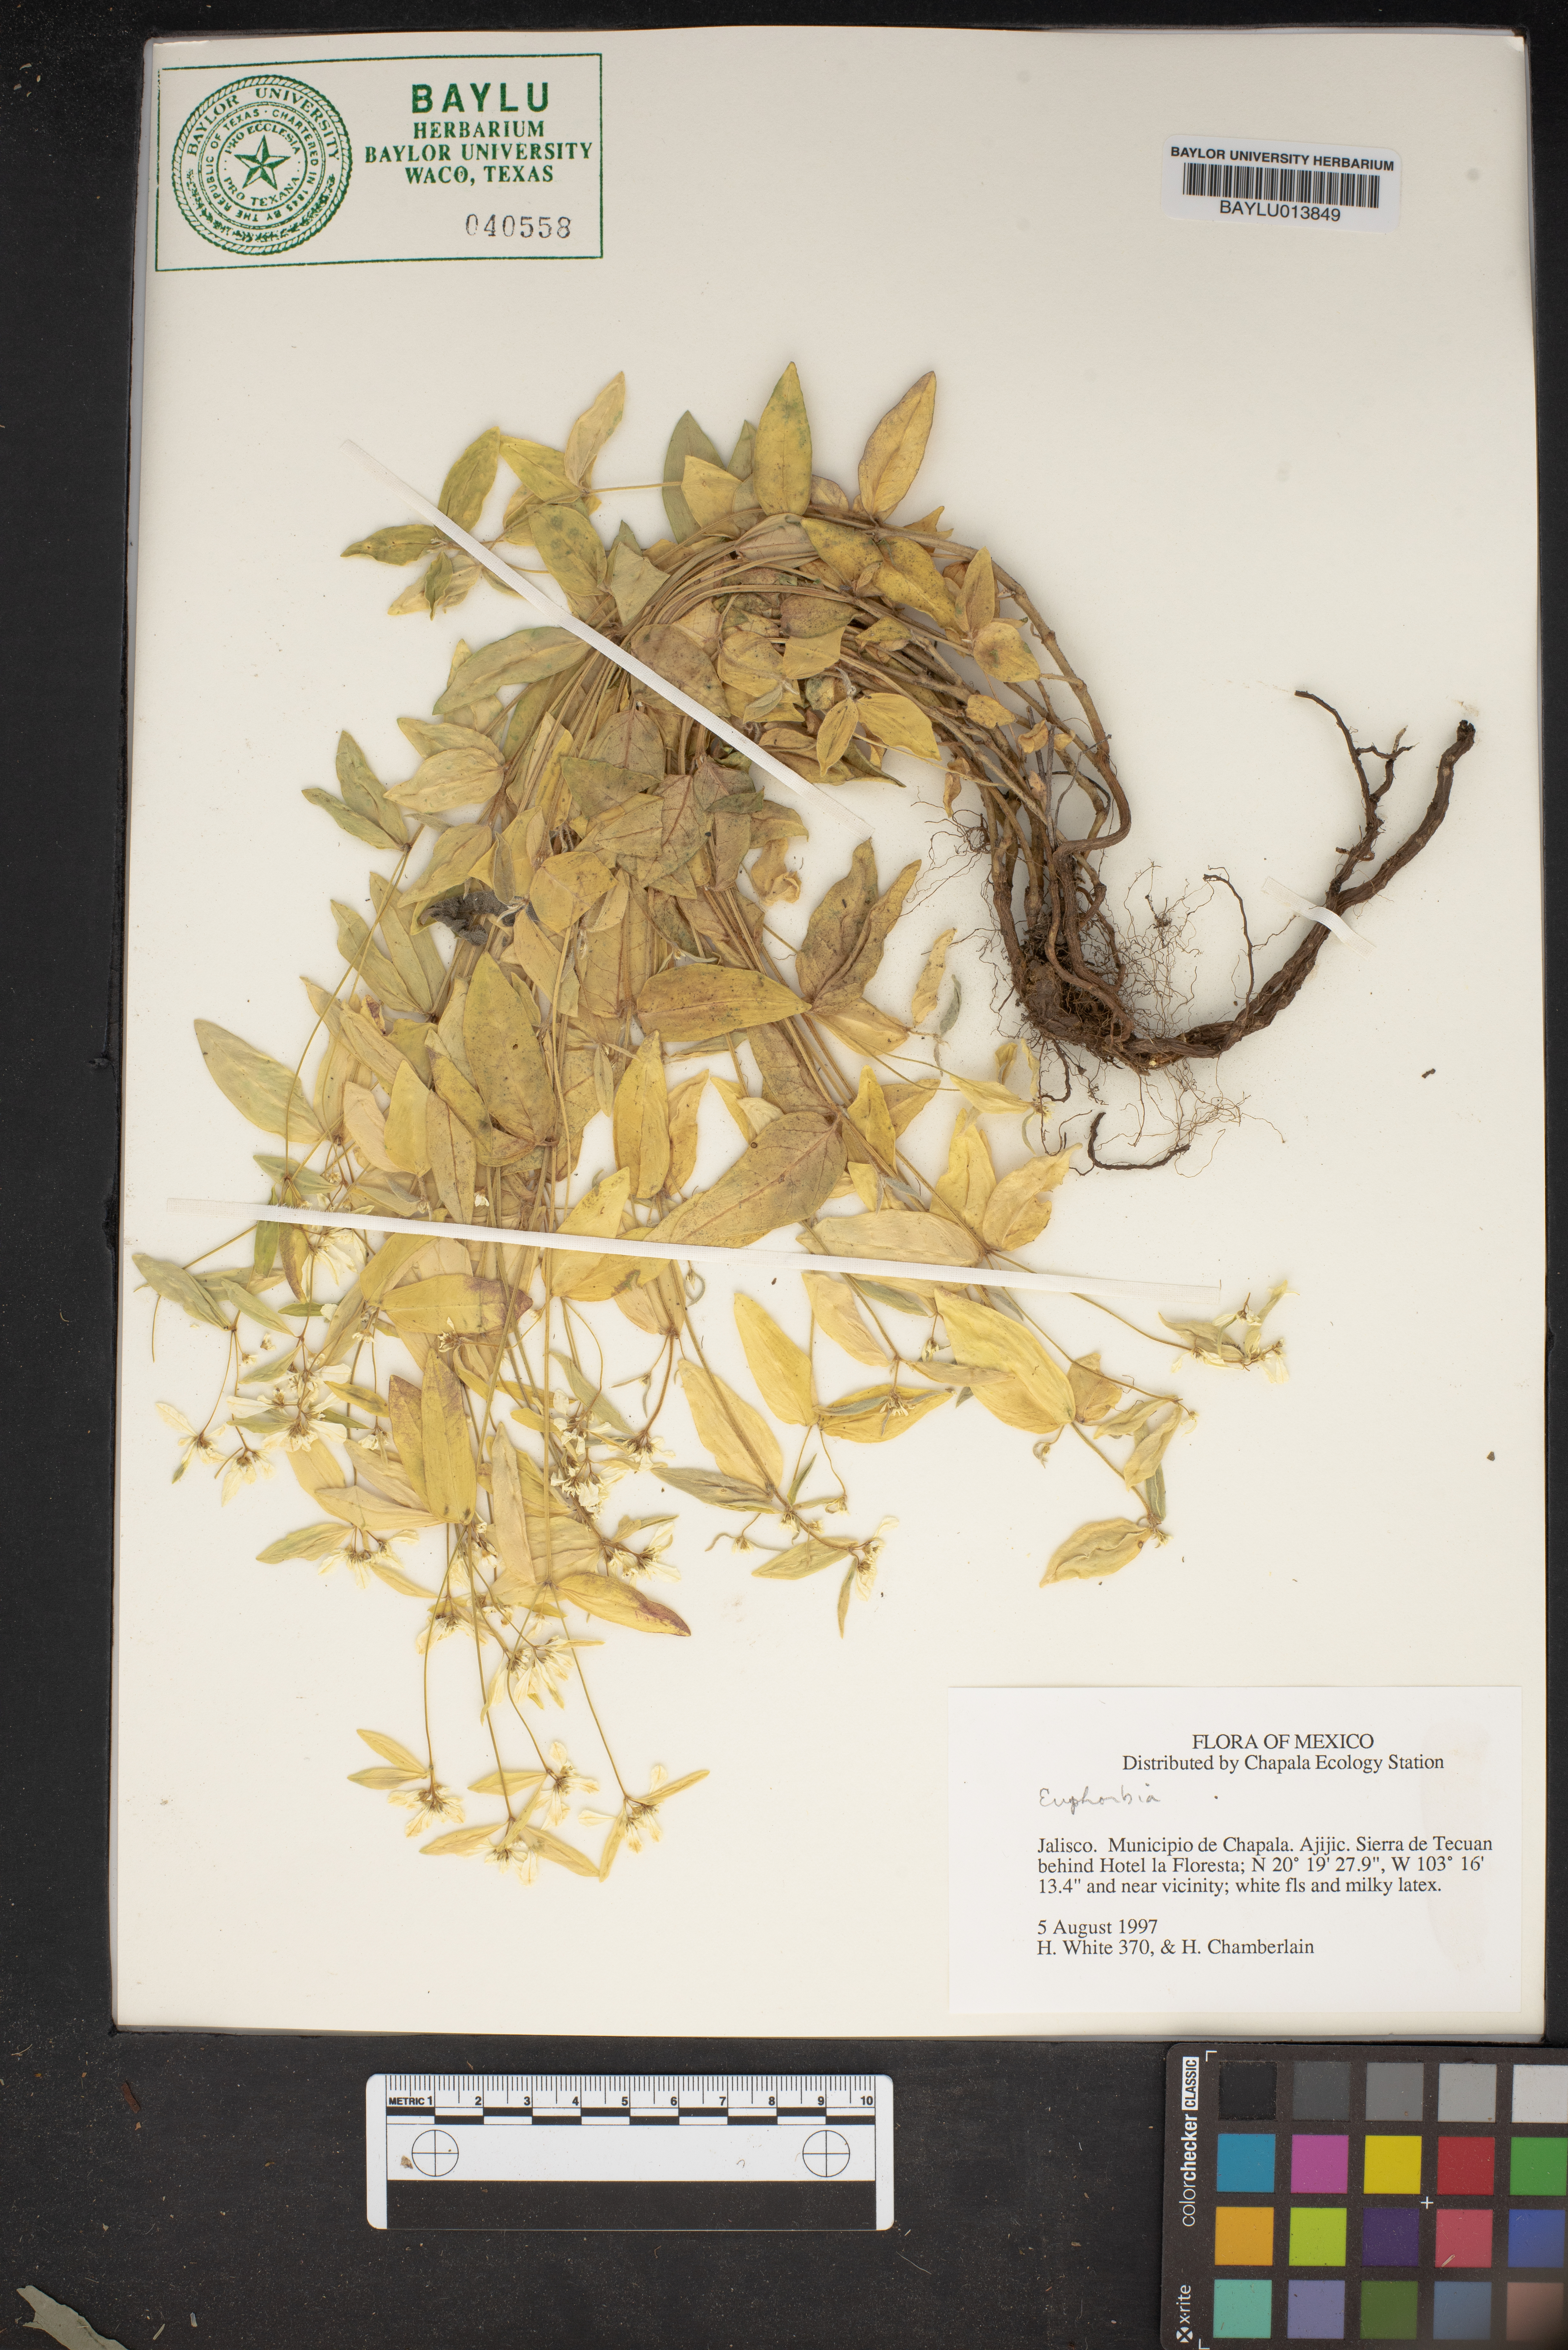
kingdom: Plantae
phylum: Tracheophyta
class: Magnoliopsida
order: Malpighiales
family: Euphorbiaceae
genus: Euphorbia
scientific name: Euphorbia
